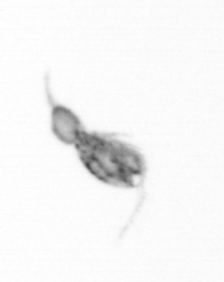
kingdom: Animalia
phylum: Arthropoda
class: Copepoda
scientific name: Copepoda
